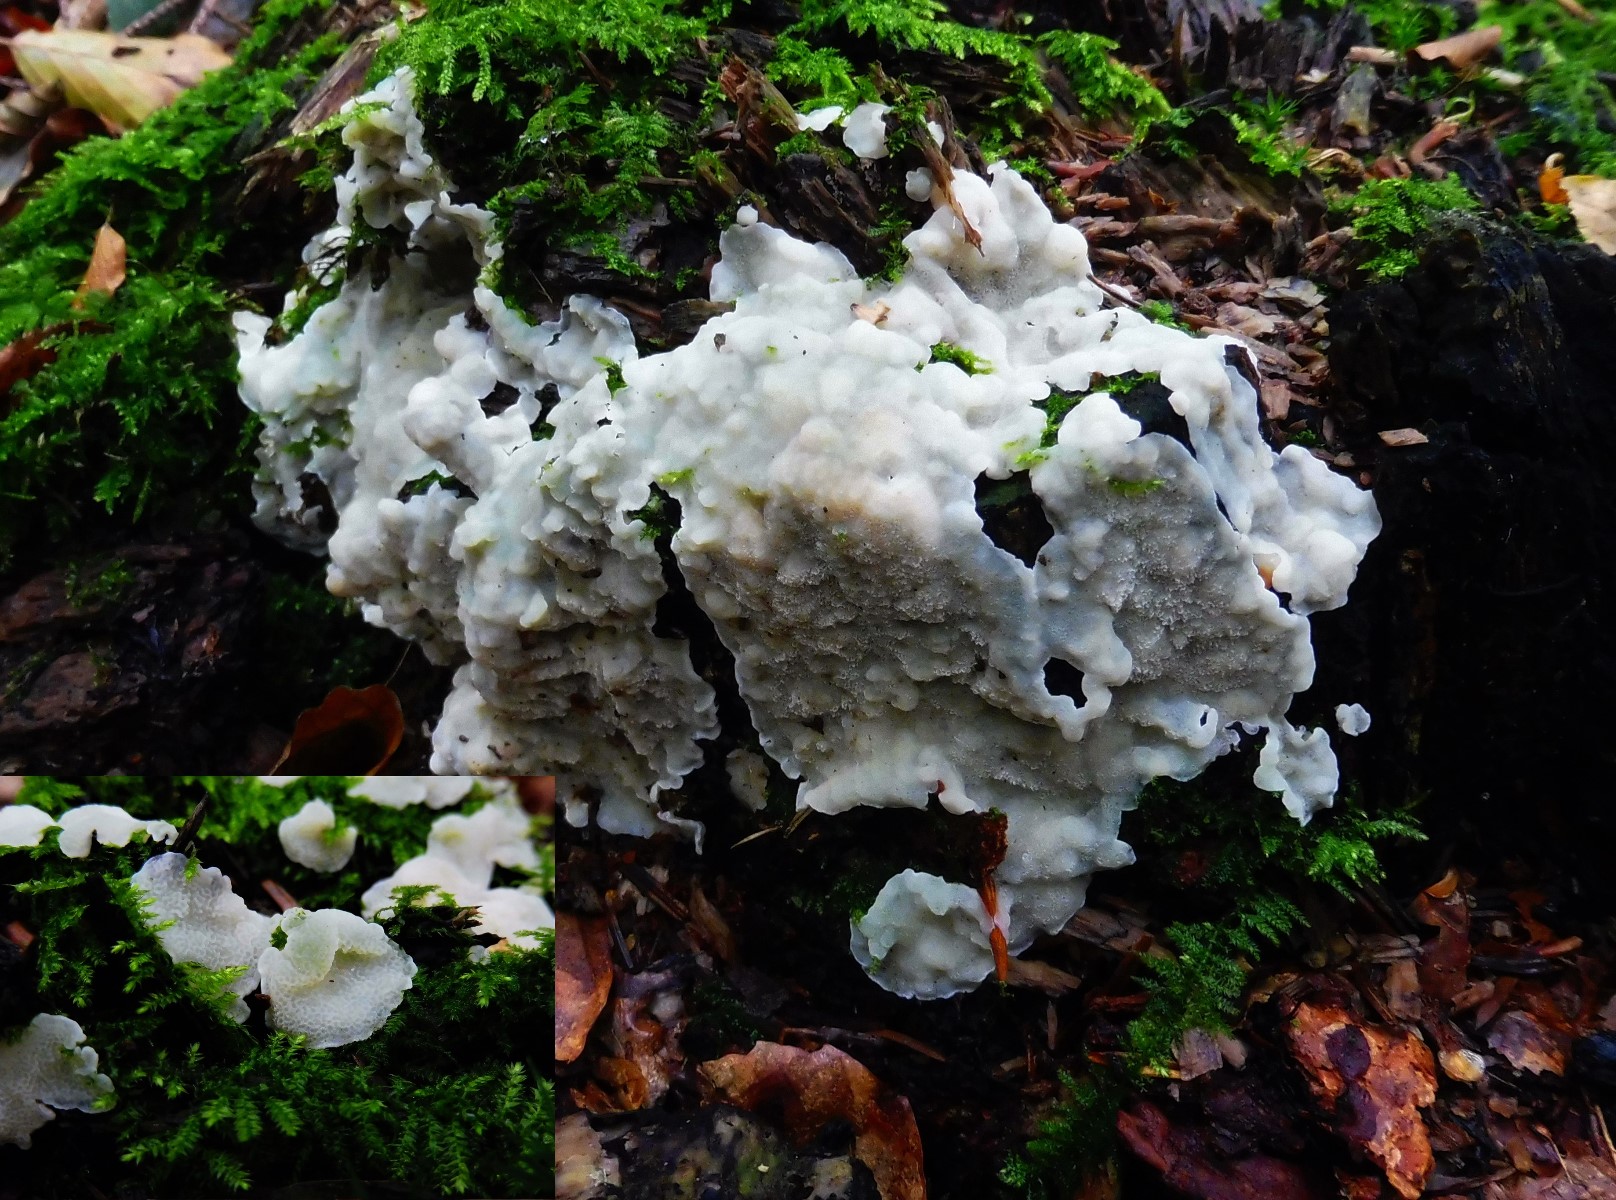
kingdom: Fungi
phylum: Basidiomycota
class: Agaricomycetes
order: Polyporales
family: Meruliaceae
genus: Physisporinus
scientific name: Physisporinus vitreus
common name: mastesvamp
